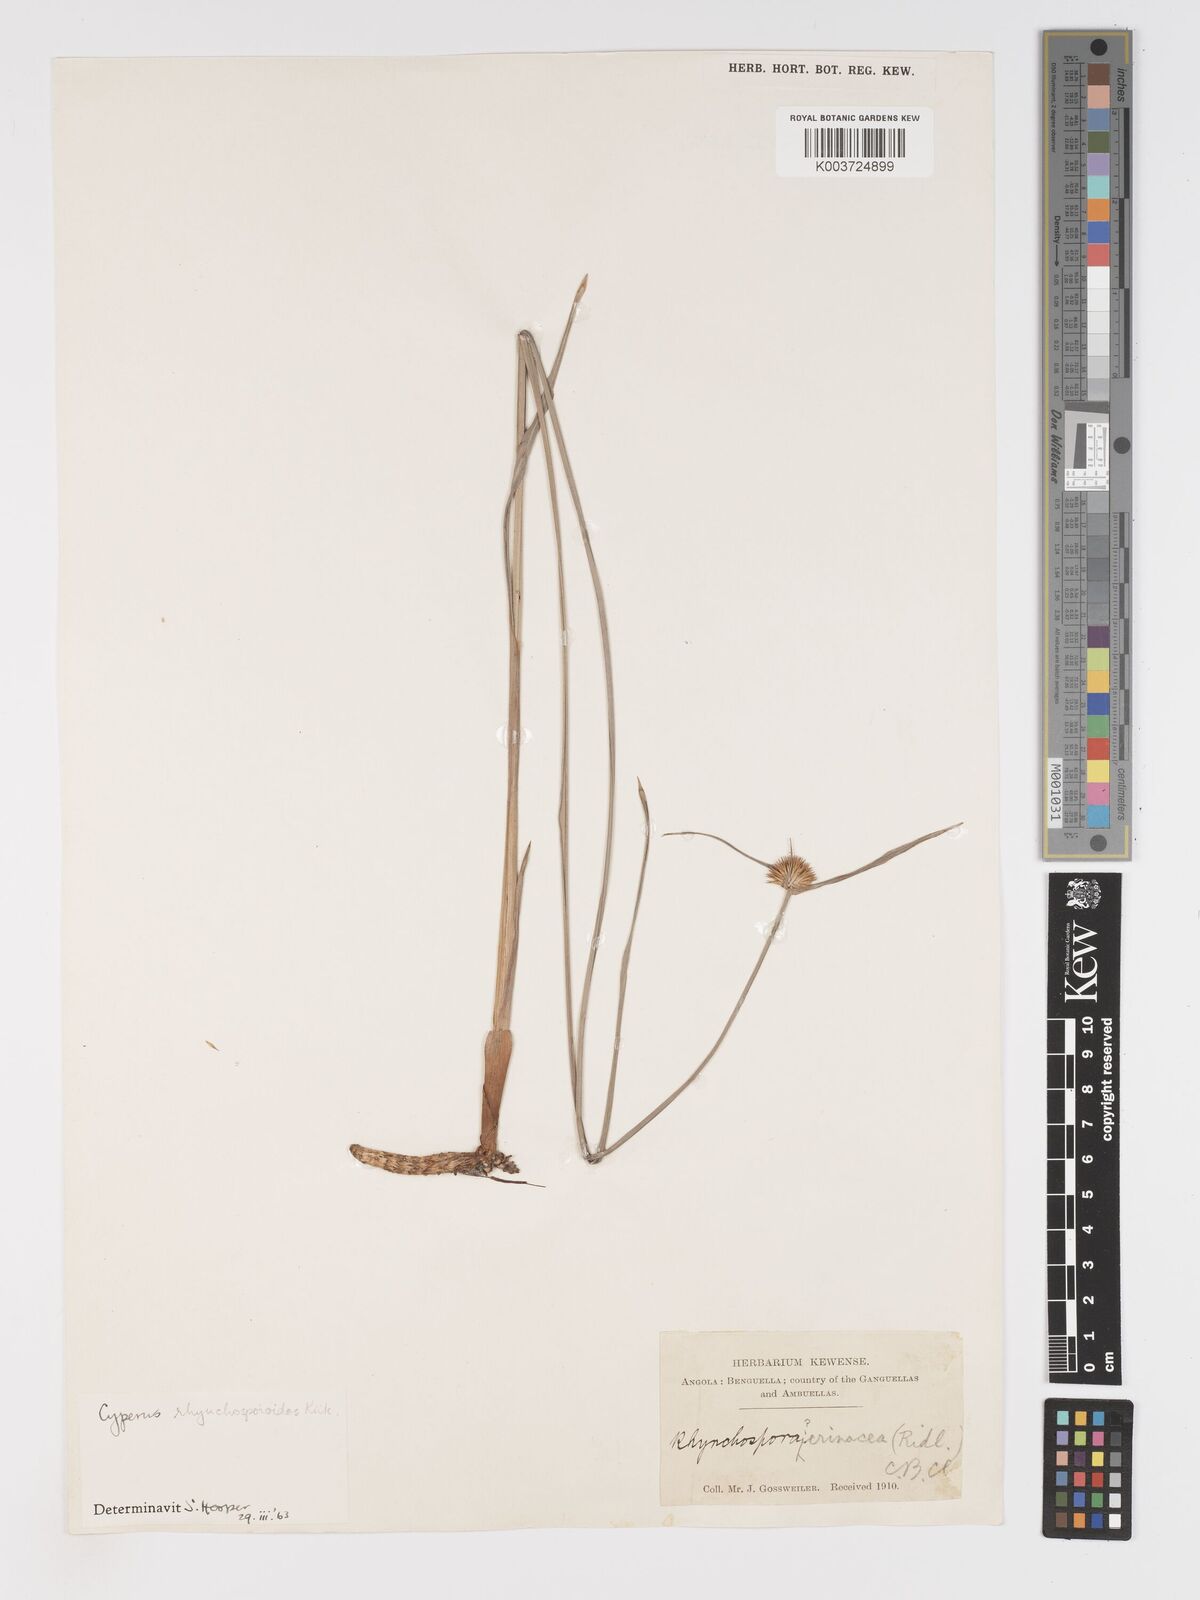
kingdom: Plantae
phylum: Tracheophyta
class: Liliopsida
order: Poales
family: Cyperaceae
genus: Cyperus
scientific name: Cyperus rhynchosporoides
